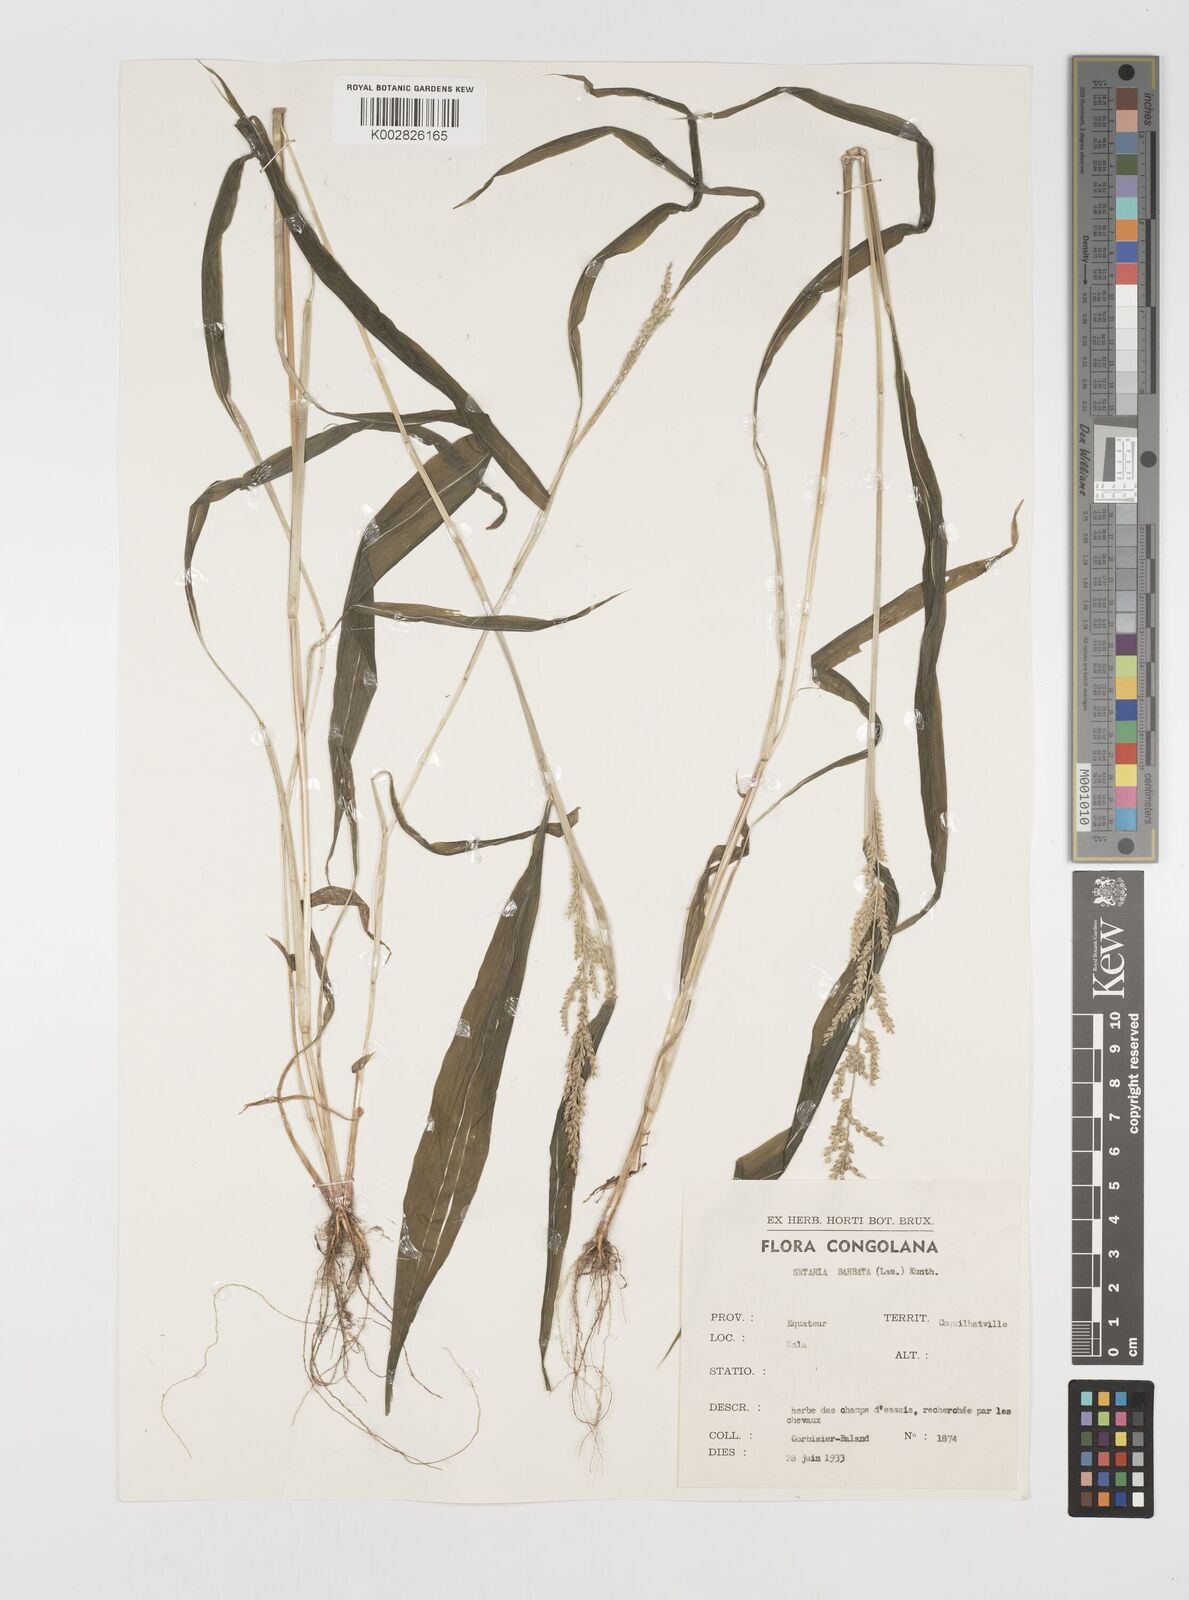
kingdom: Plantae
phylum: Tracheophyta
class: Liliopsida
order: Poales
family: Poaceae
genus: Setaria
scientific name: Setaria barbata
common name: East indian bristlegrass
